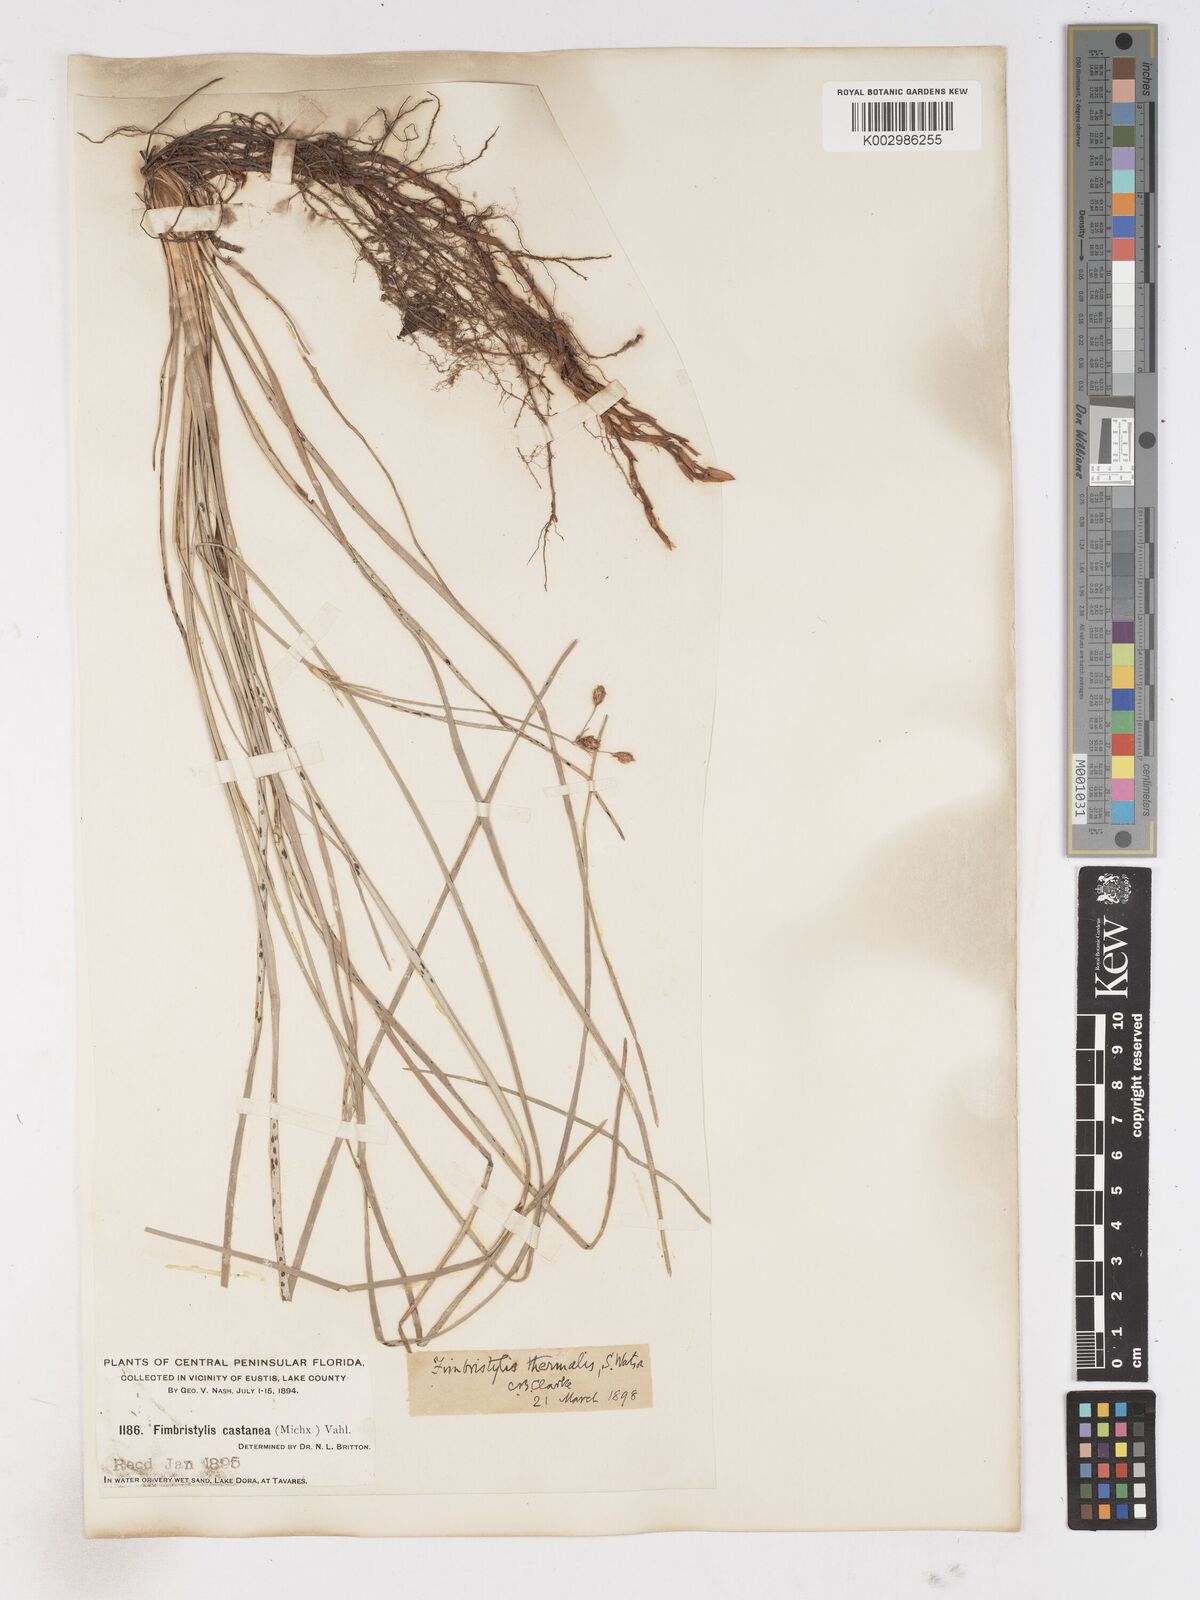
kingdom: Plantae
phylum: Tracheophyta
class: Liliopsida
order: Poales
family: Cyperaceae
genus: Fimbristylis
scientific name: Fimbristylis thermalis
